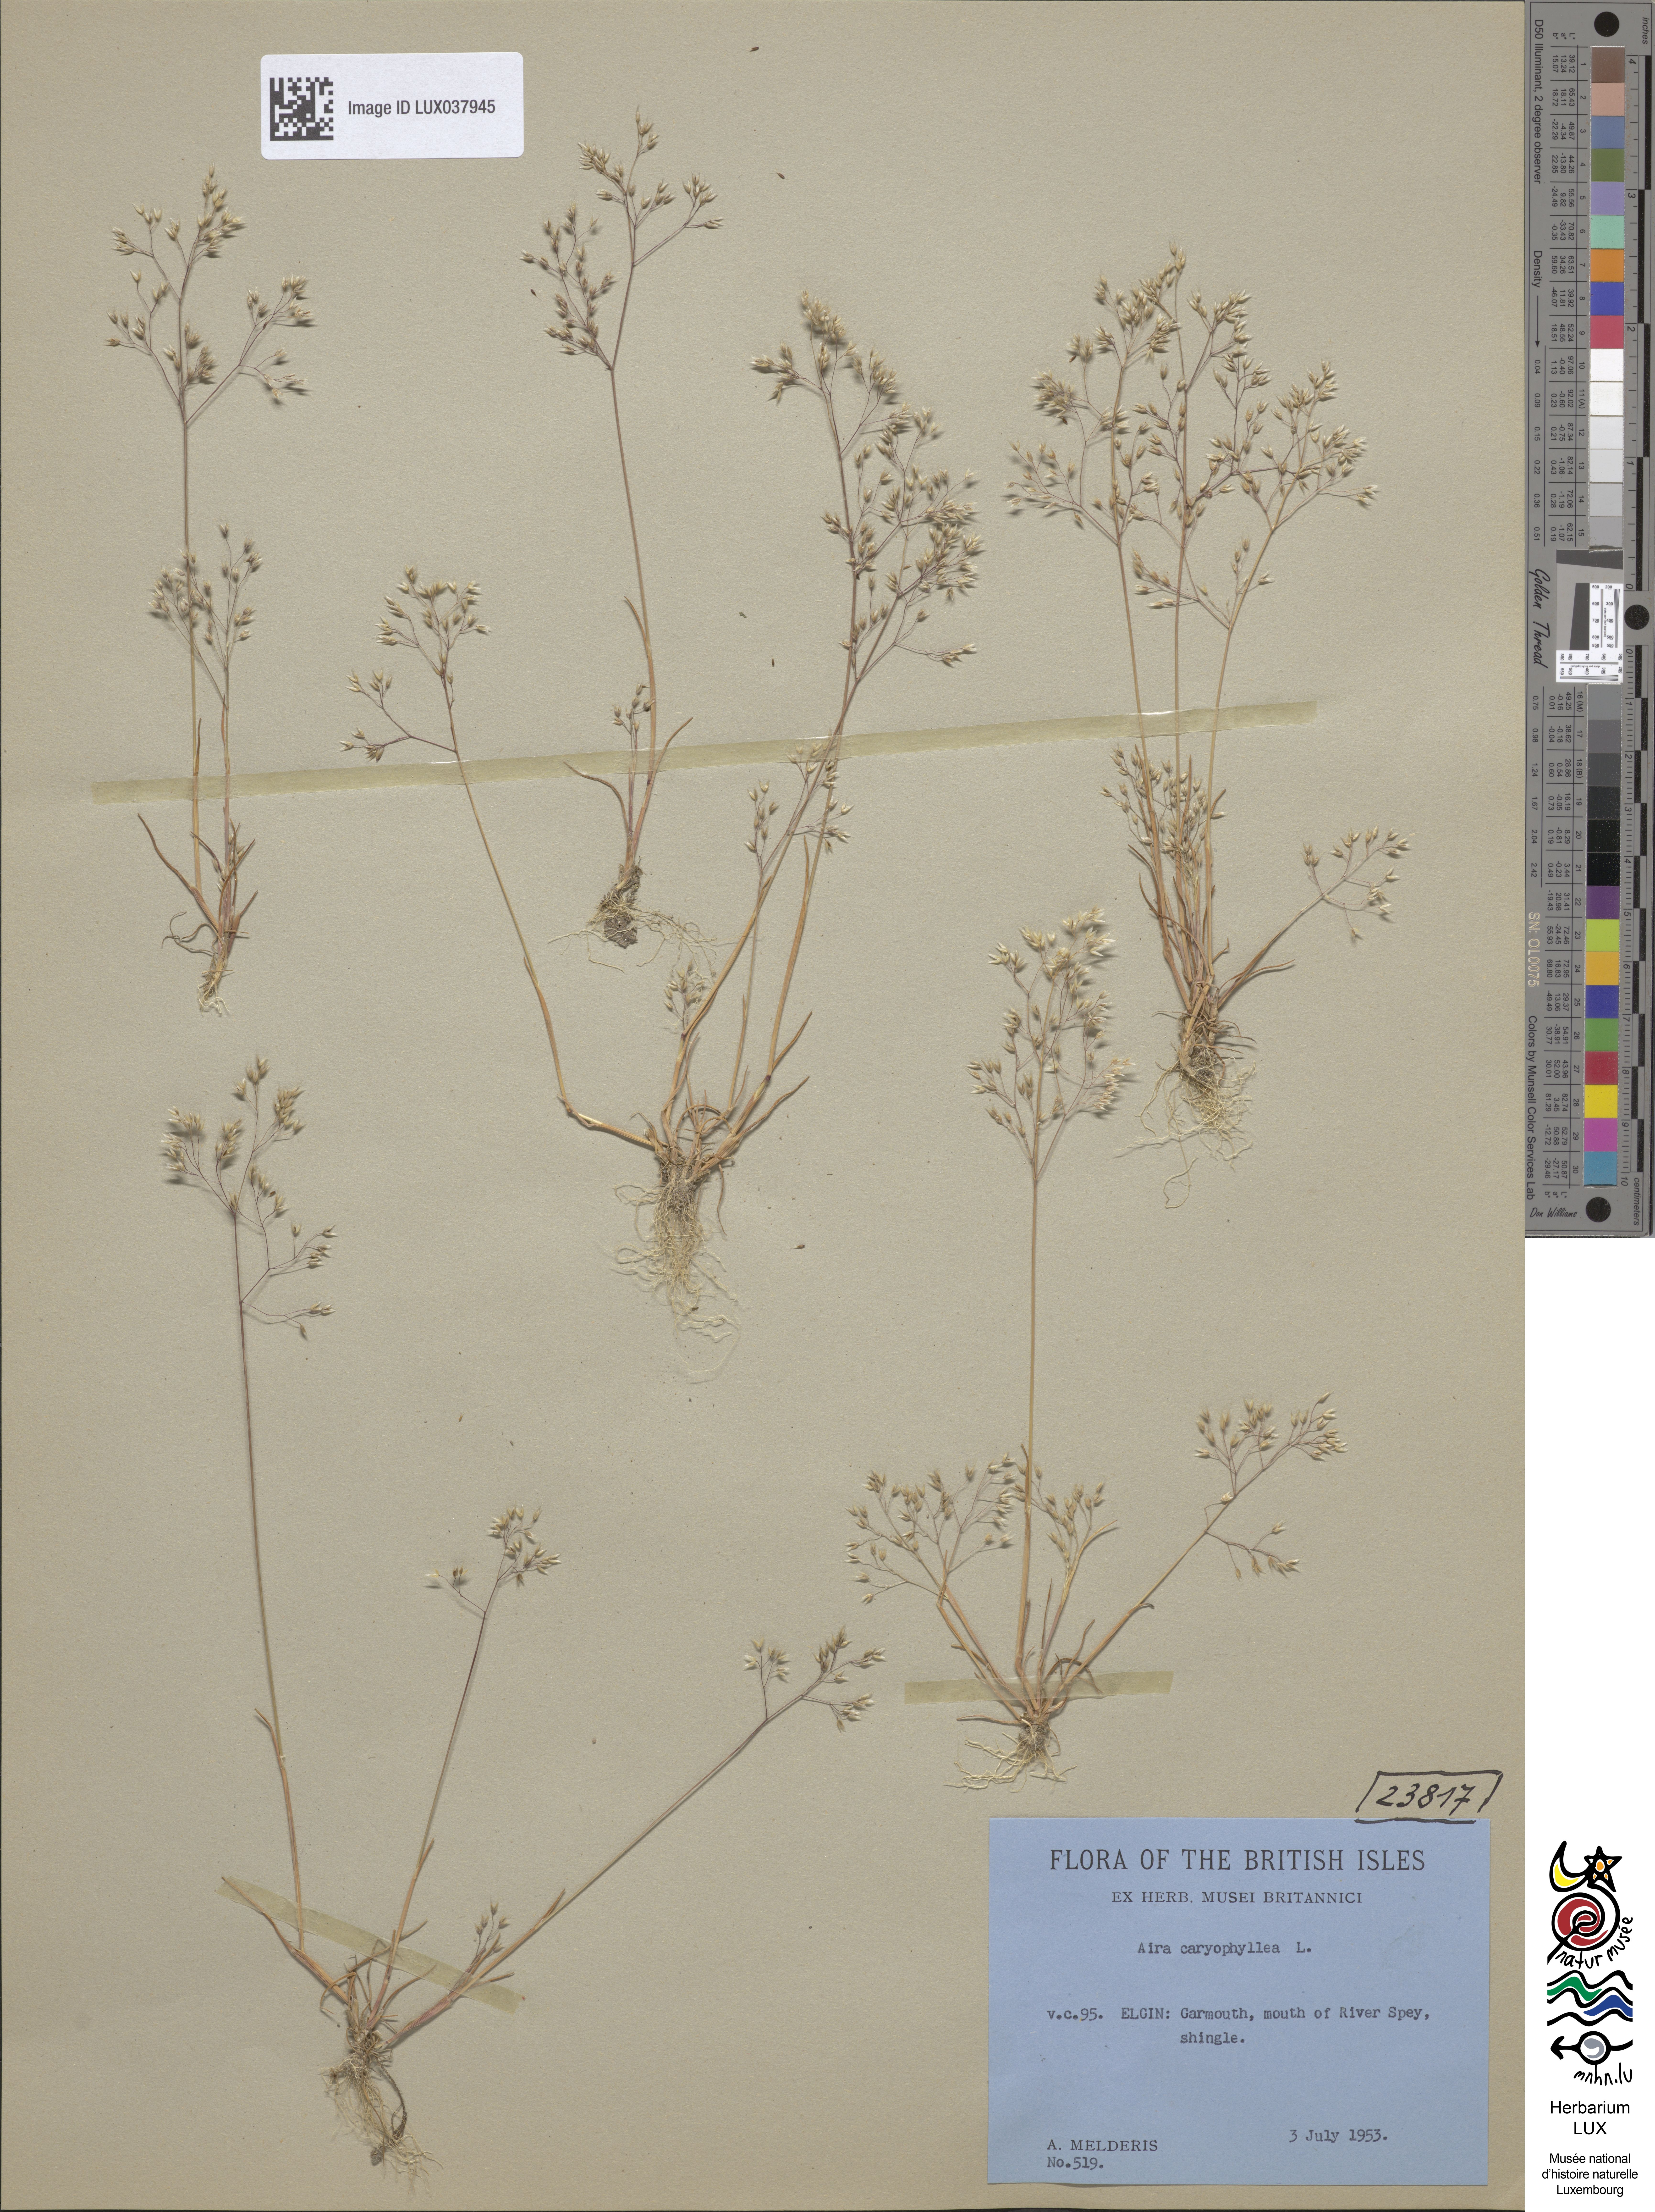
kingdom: Plantae
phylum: Tracheophyta
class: Liliopsida
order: Poales
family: Poaceae
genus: Aira
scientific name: Aira caryophyllea
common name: Silver hairgrass
